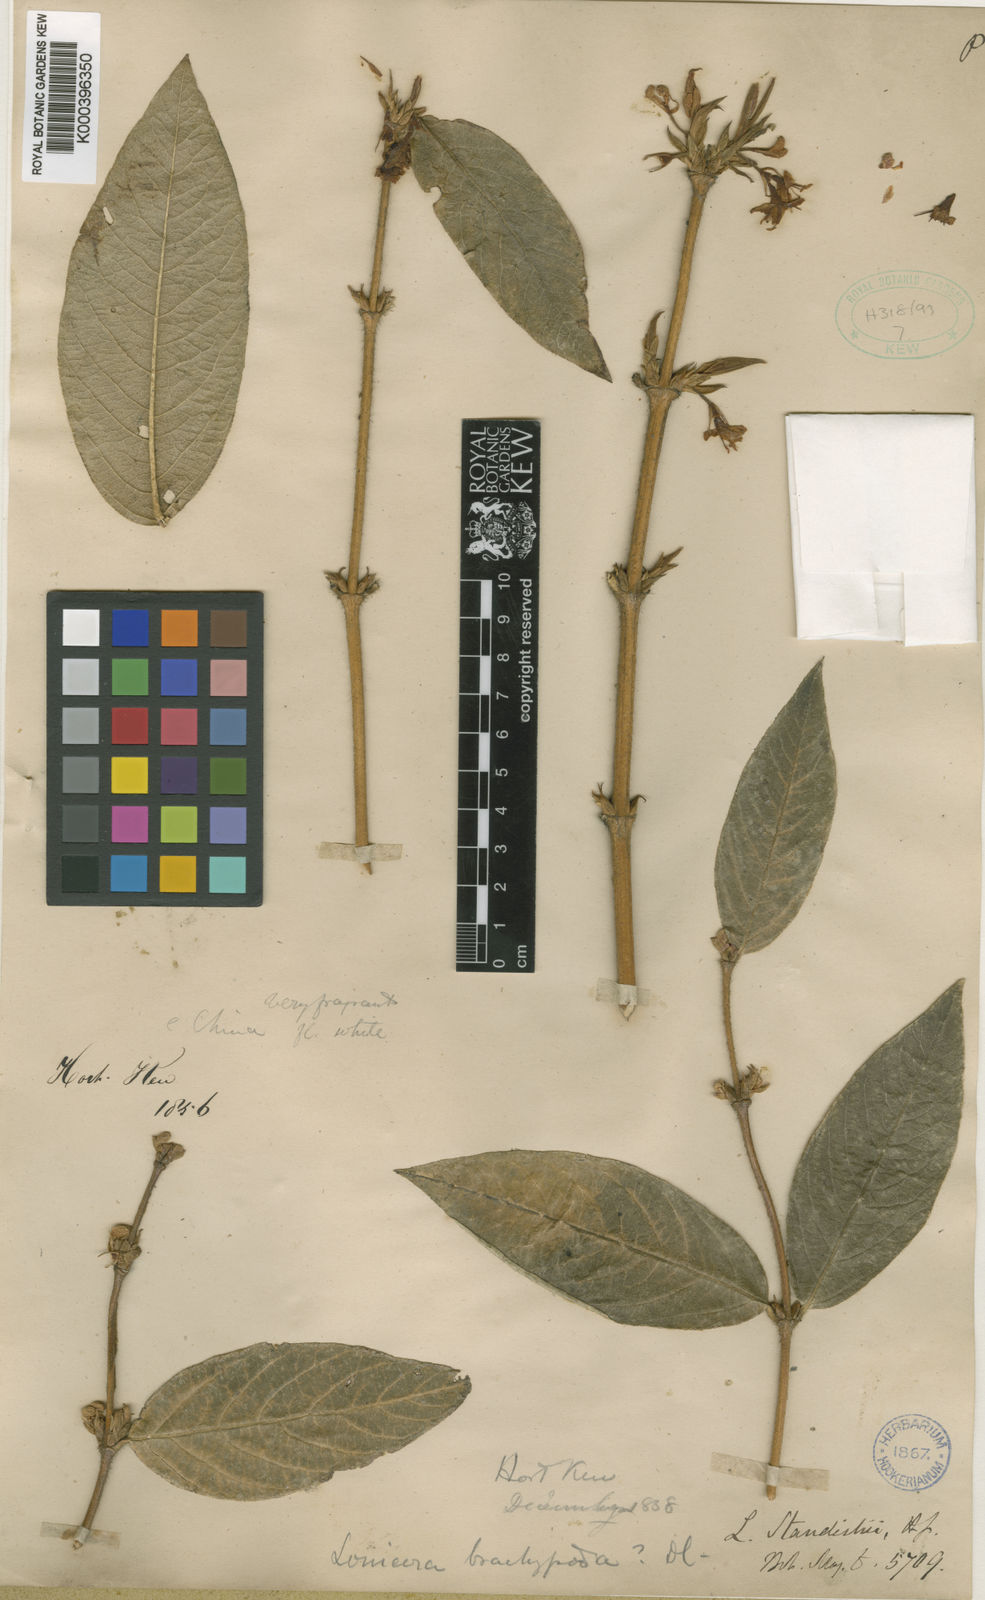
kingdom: Plantae
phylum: Tracheophyta
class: Magnoliopsida
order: Dipsacales
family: Caprifoliaceae
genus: Lonicera
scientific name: Lonicera fragrantissima
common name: Fragrant honeysuckle
